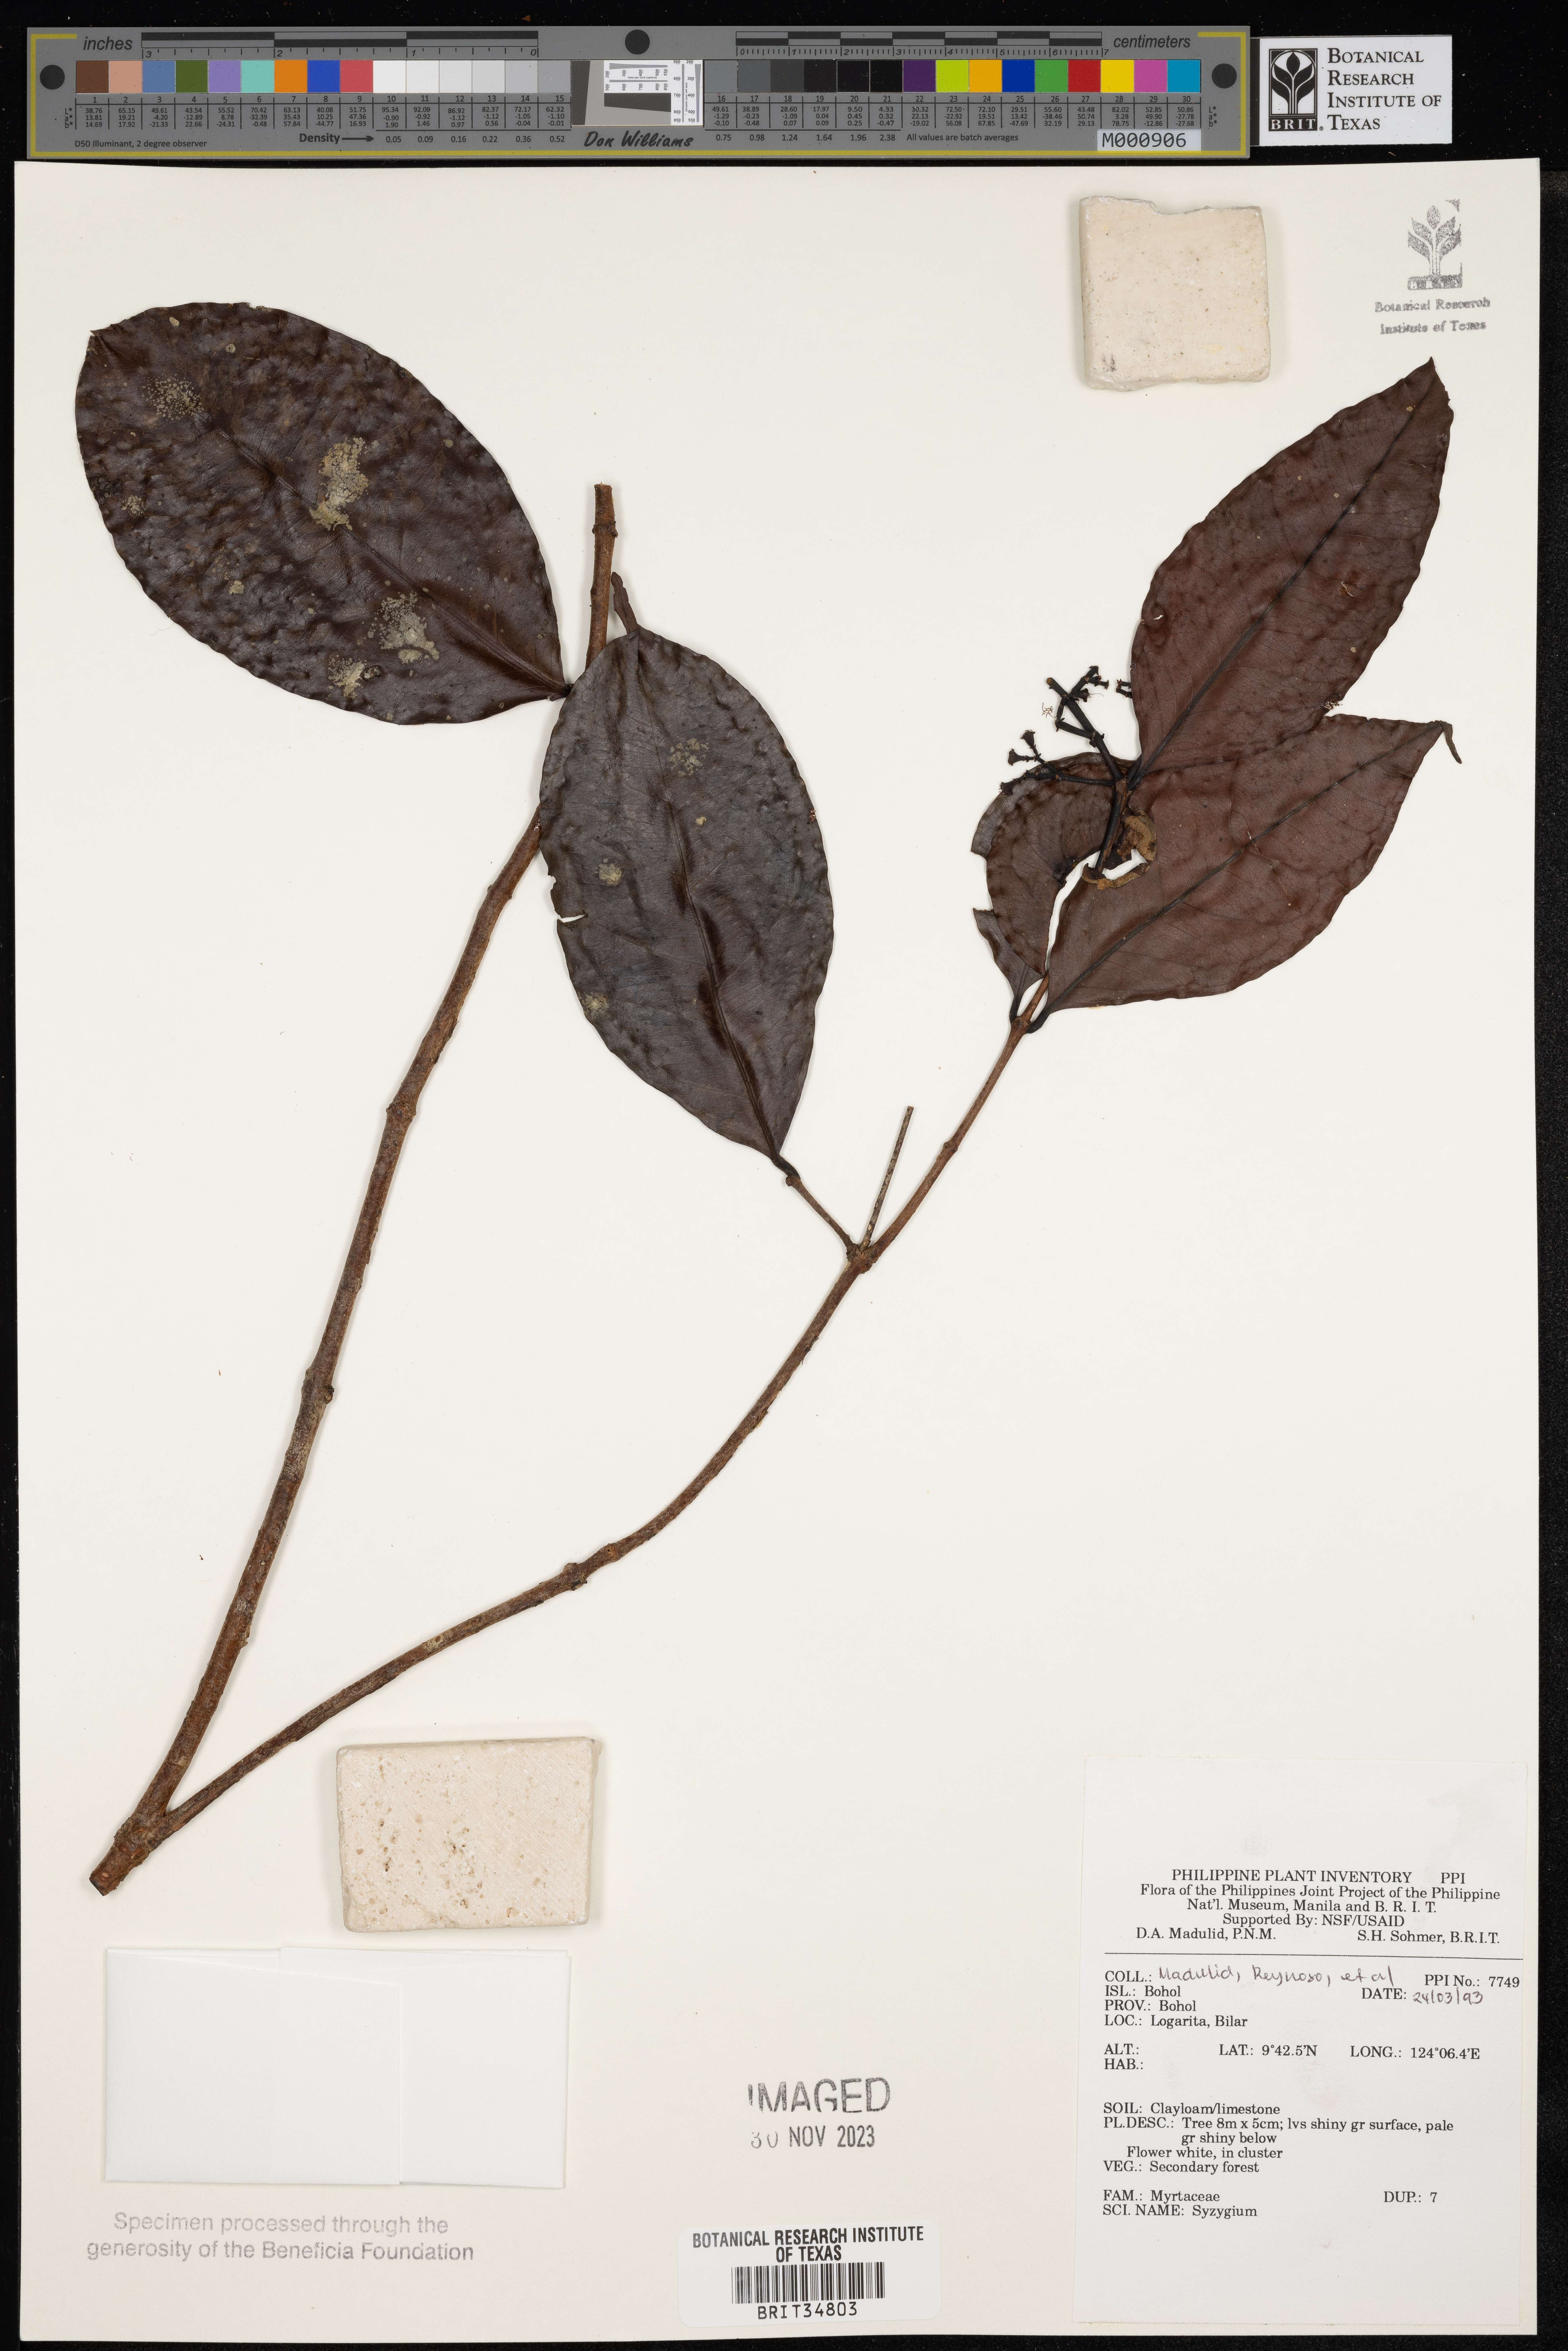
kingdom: Plantae
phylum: Tracheophyta
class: Magnoliopsida
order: Myrtales
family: Myrtaceae
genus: Syzygium
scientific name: Syzygium
